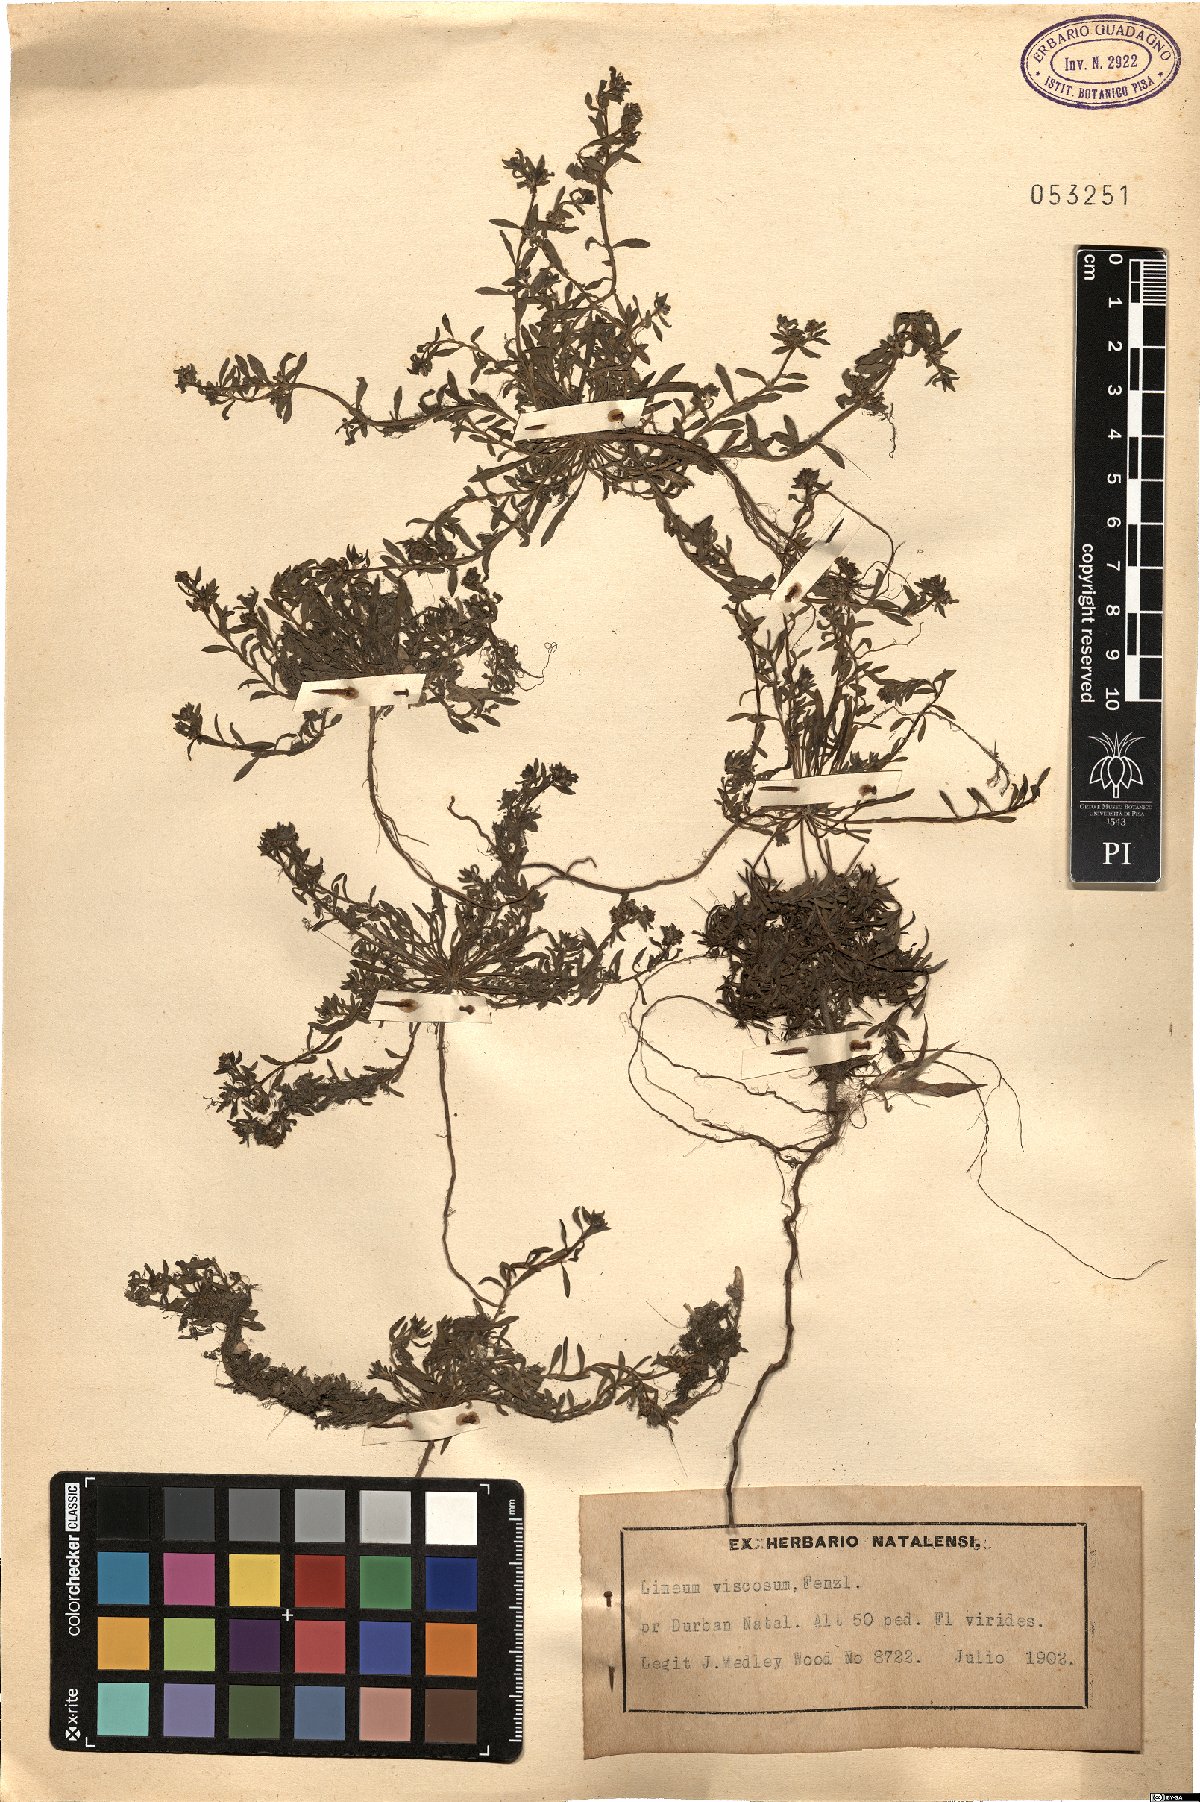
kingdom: Plantae
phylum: Tracheophyta
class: Magnoliopsida
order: Caryophyllales
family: Limeaceae
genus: Limeum
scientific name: Limeum viscosum
